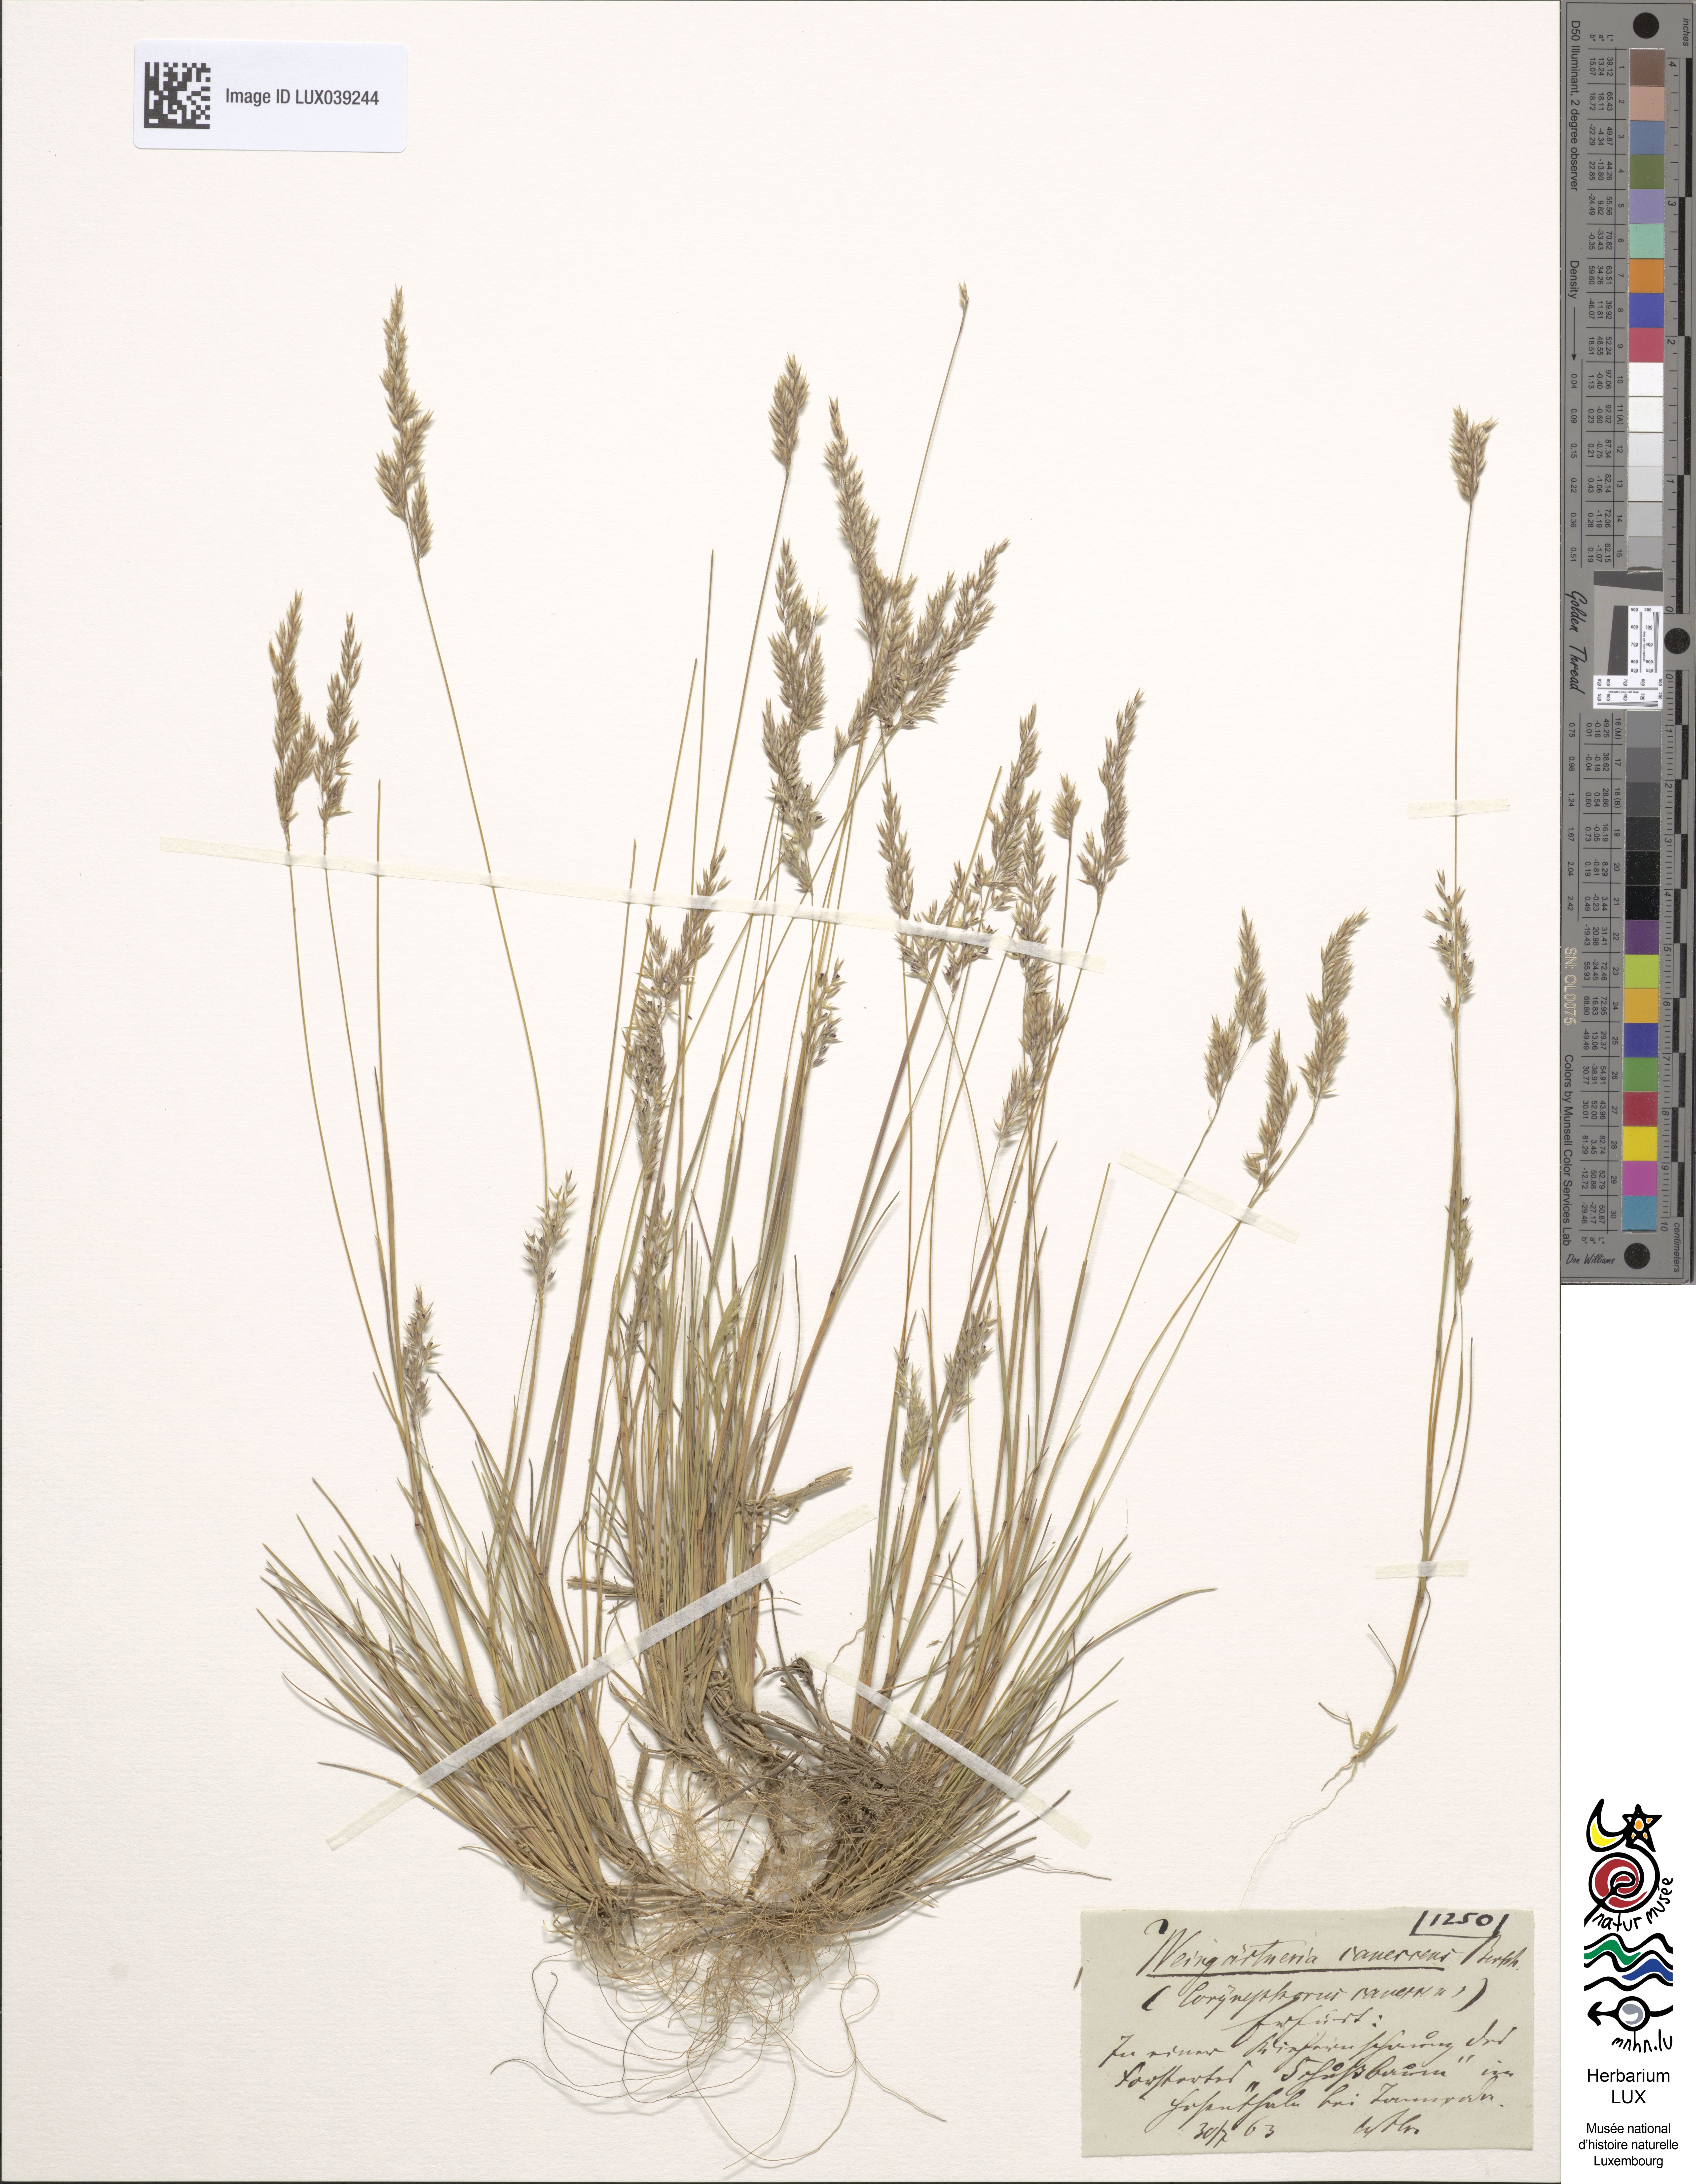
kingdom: Plantae
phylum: Tracheophyta
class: Liliopsida
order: Poales
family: Poaceae
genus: Corynephorus
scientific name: Corynephorus canescens
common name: Grey hair-grass
